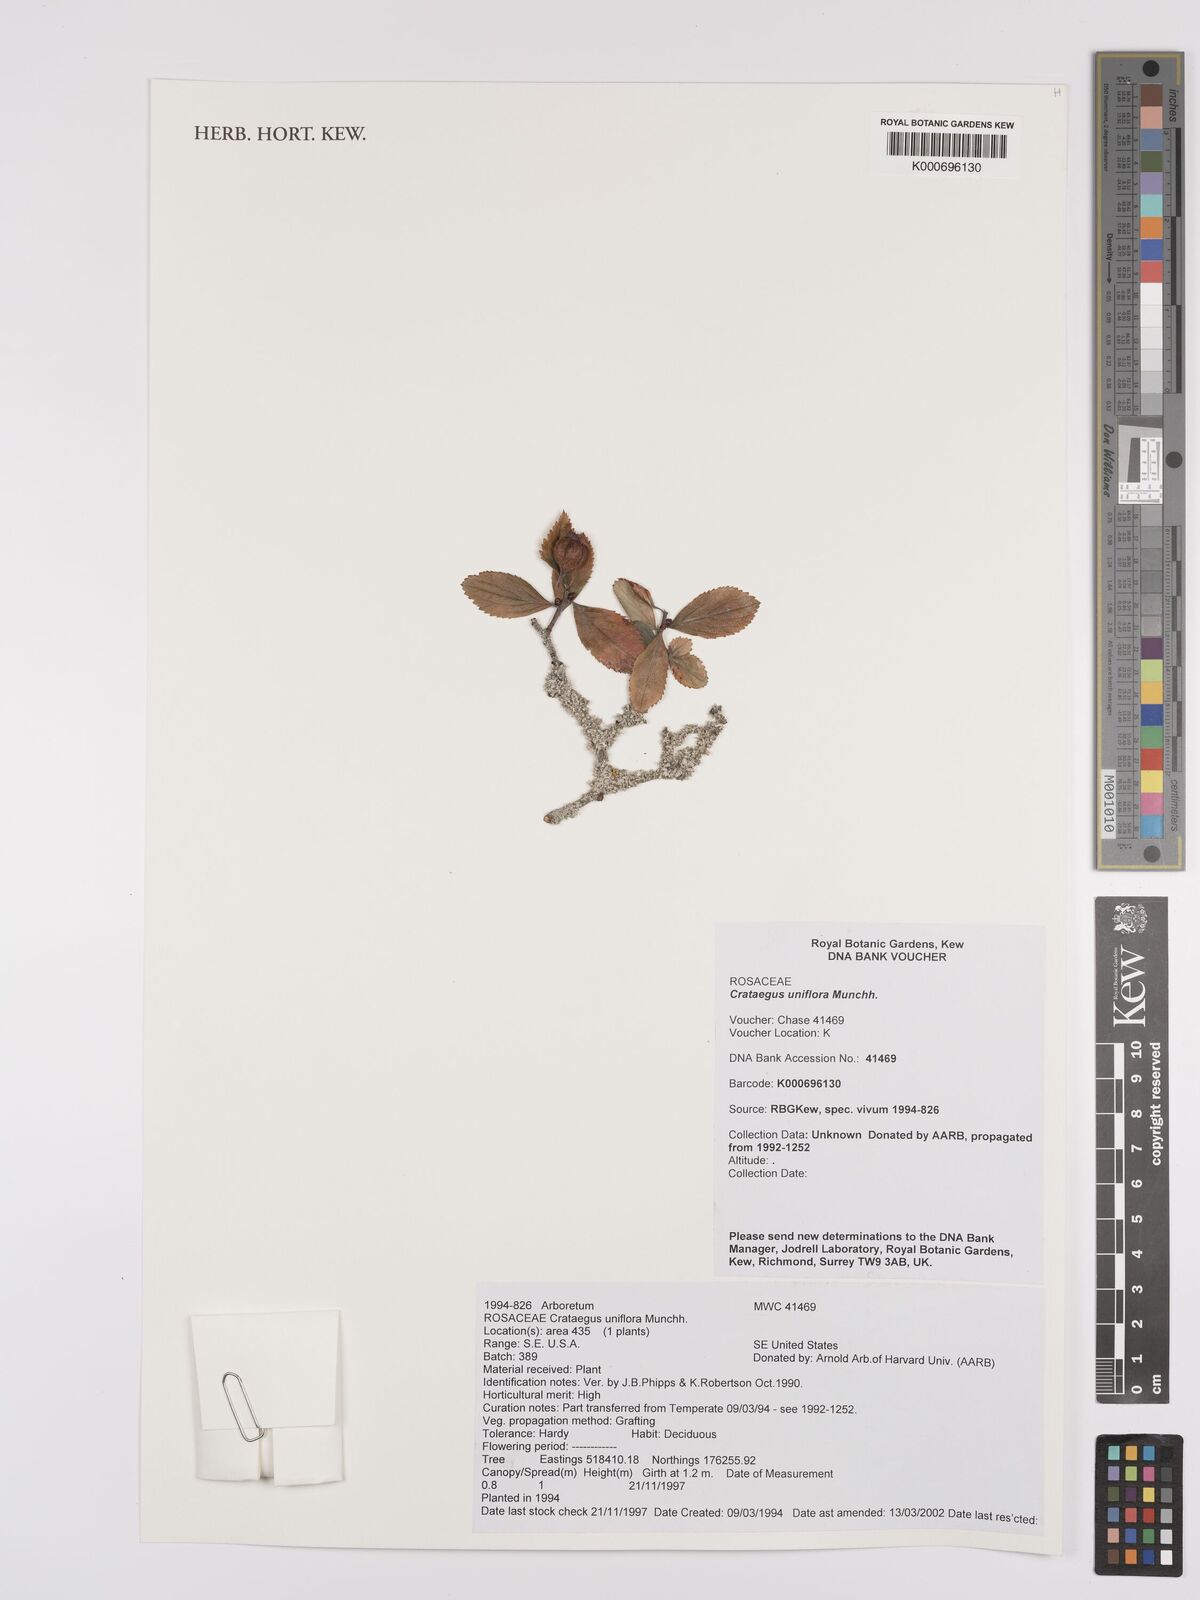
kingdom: Plantae
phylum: Tracheophyta
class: Magnoliopsida
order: Rosales
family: Rosaceae
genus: Crataegus
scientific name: Crataegus uniflora
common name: One-flower hawthorn
